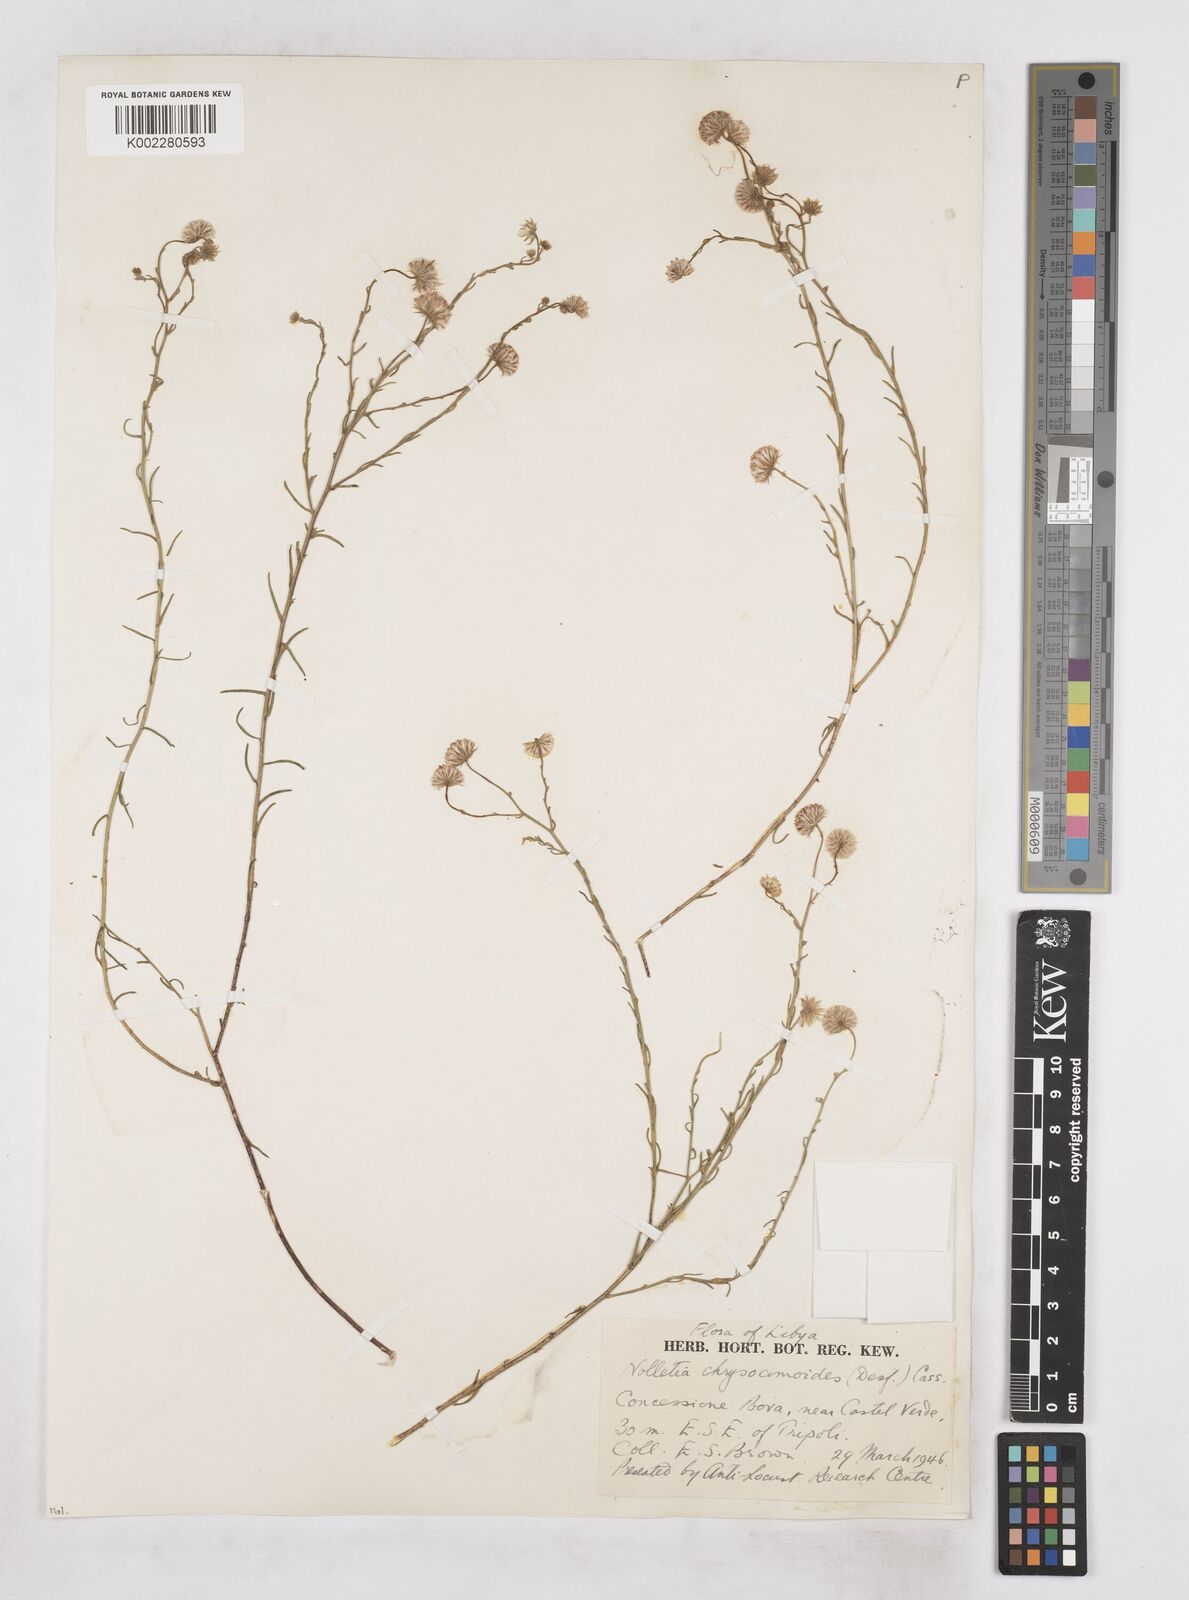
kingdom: Plantae
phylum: Tracheophyta
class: Magnoliopsida
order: Asterales
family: Asteraceae
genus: Nolletia
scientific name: Nolletia chrysocomoides
